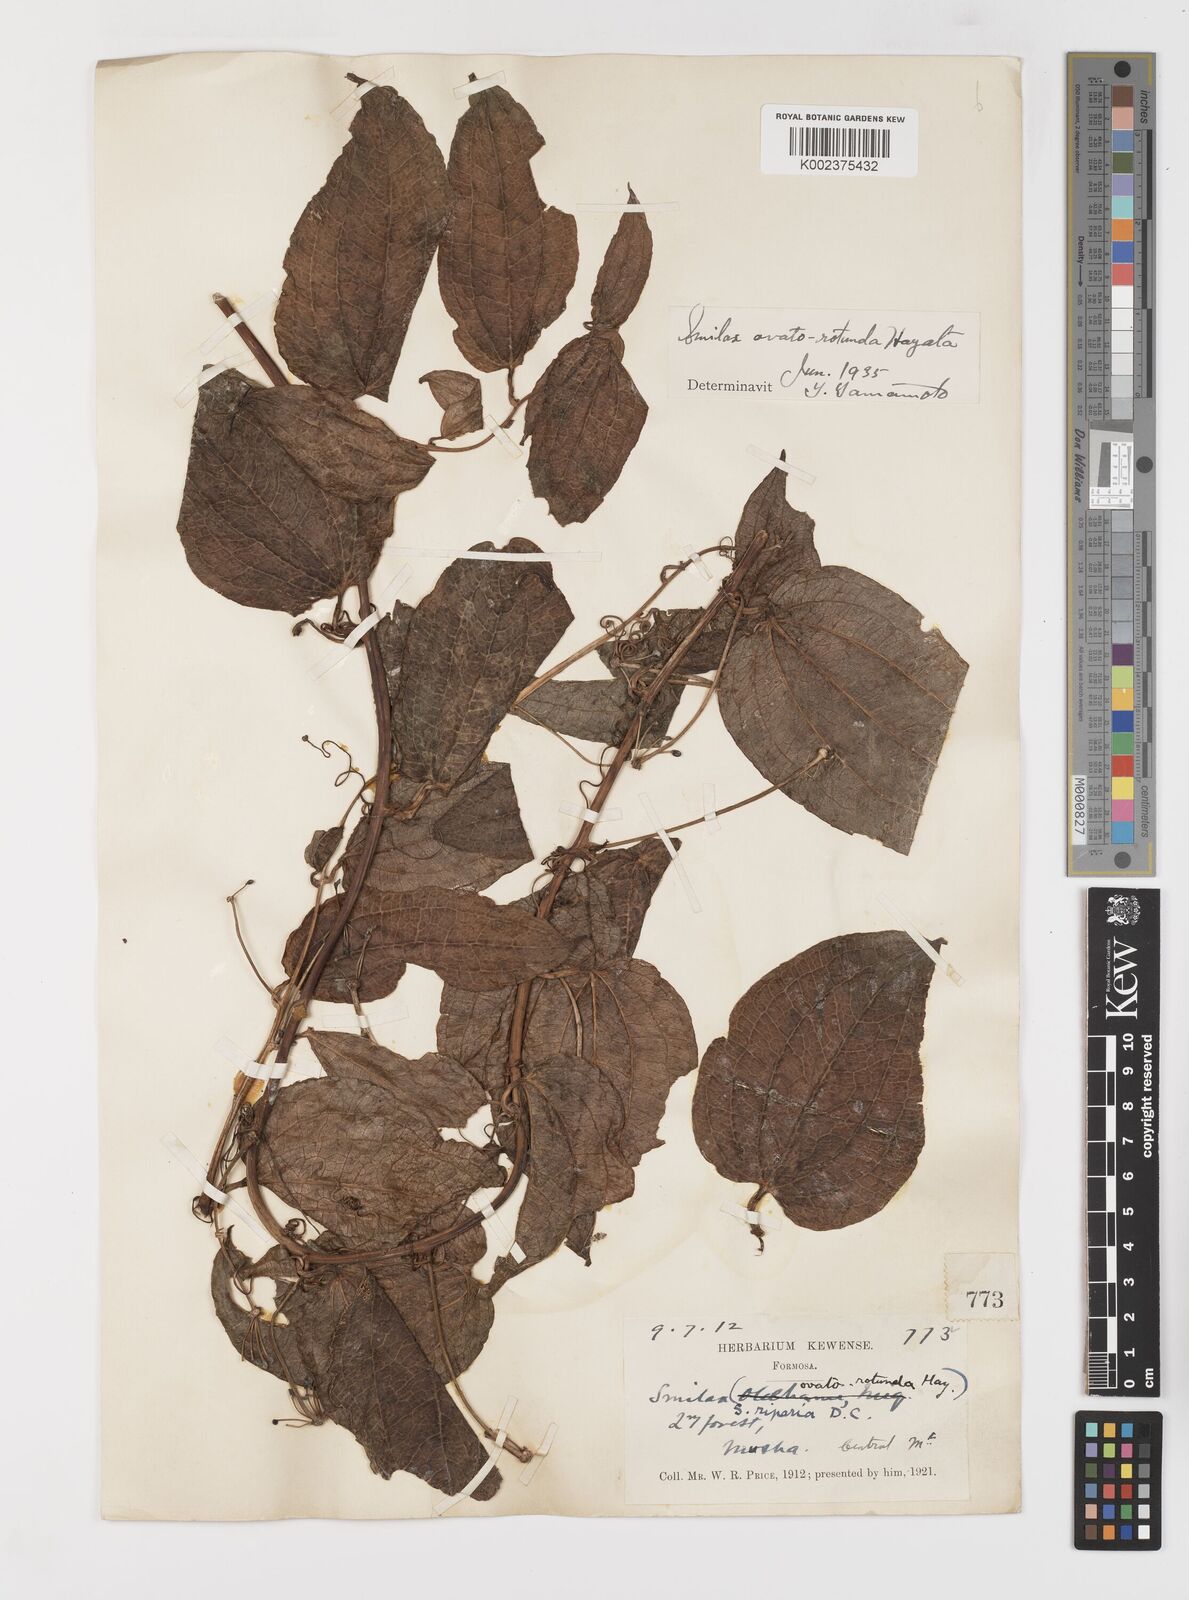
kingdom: Plantae
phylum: Tracheophyta
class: Liliopsida
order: Liliales
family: Smilacaceae
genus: Smilax
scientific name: Smilax riparia
